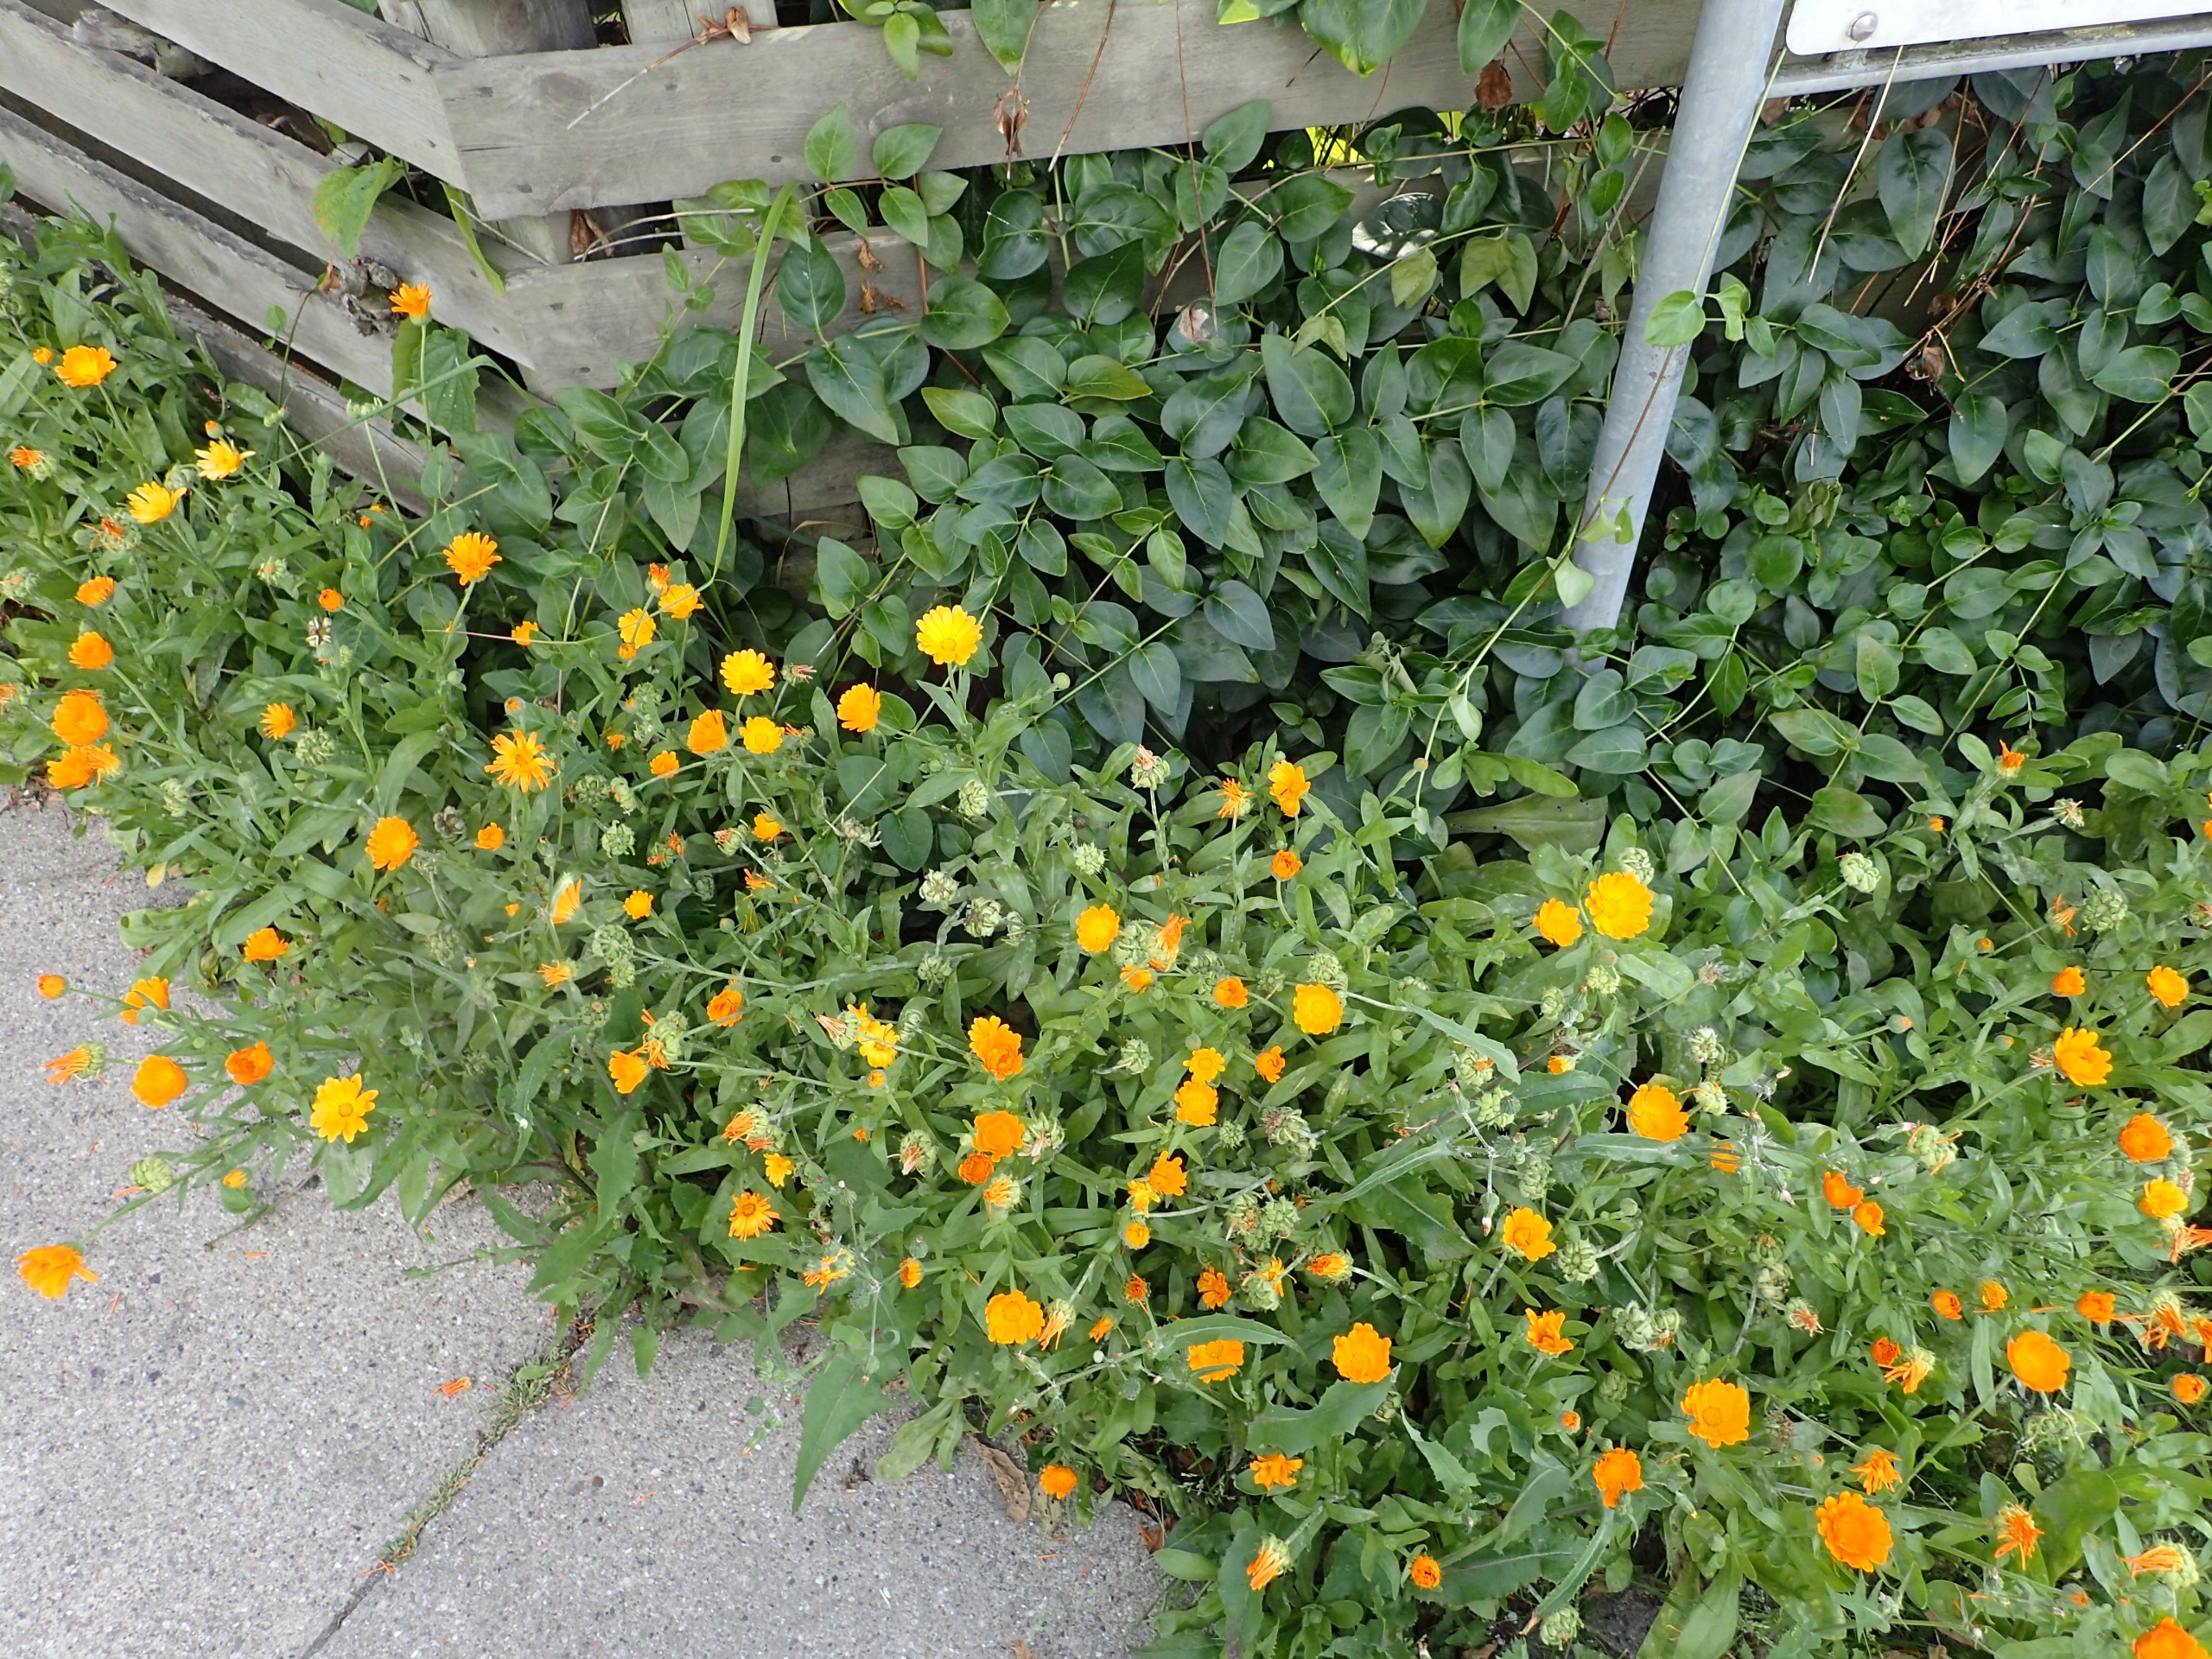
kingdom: Plantae
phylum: Tracheophyta
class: Magnoliopsida
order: Asterales
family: Asteraceae
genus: Calendula
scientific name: Calendula officinalis
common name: Have-morgenfrue
